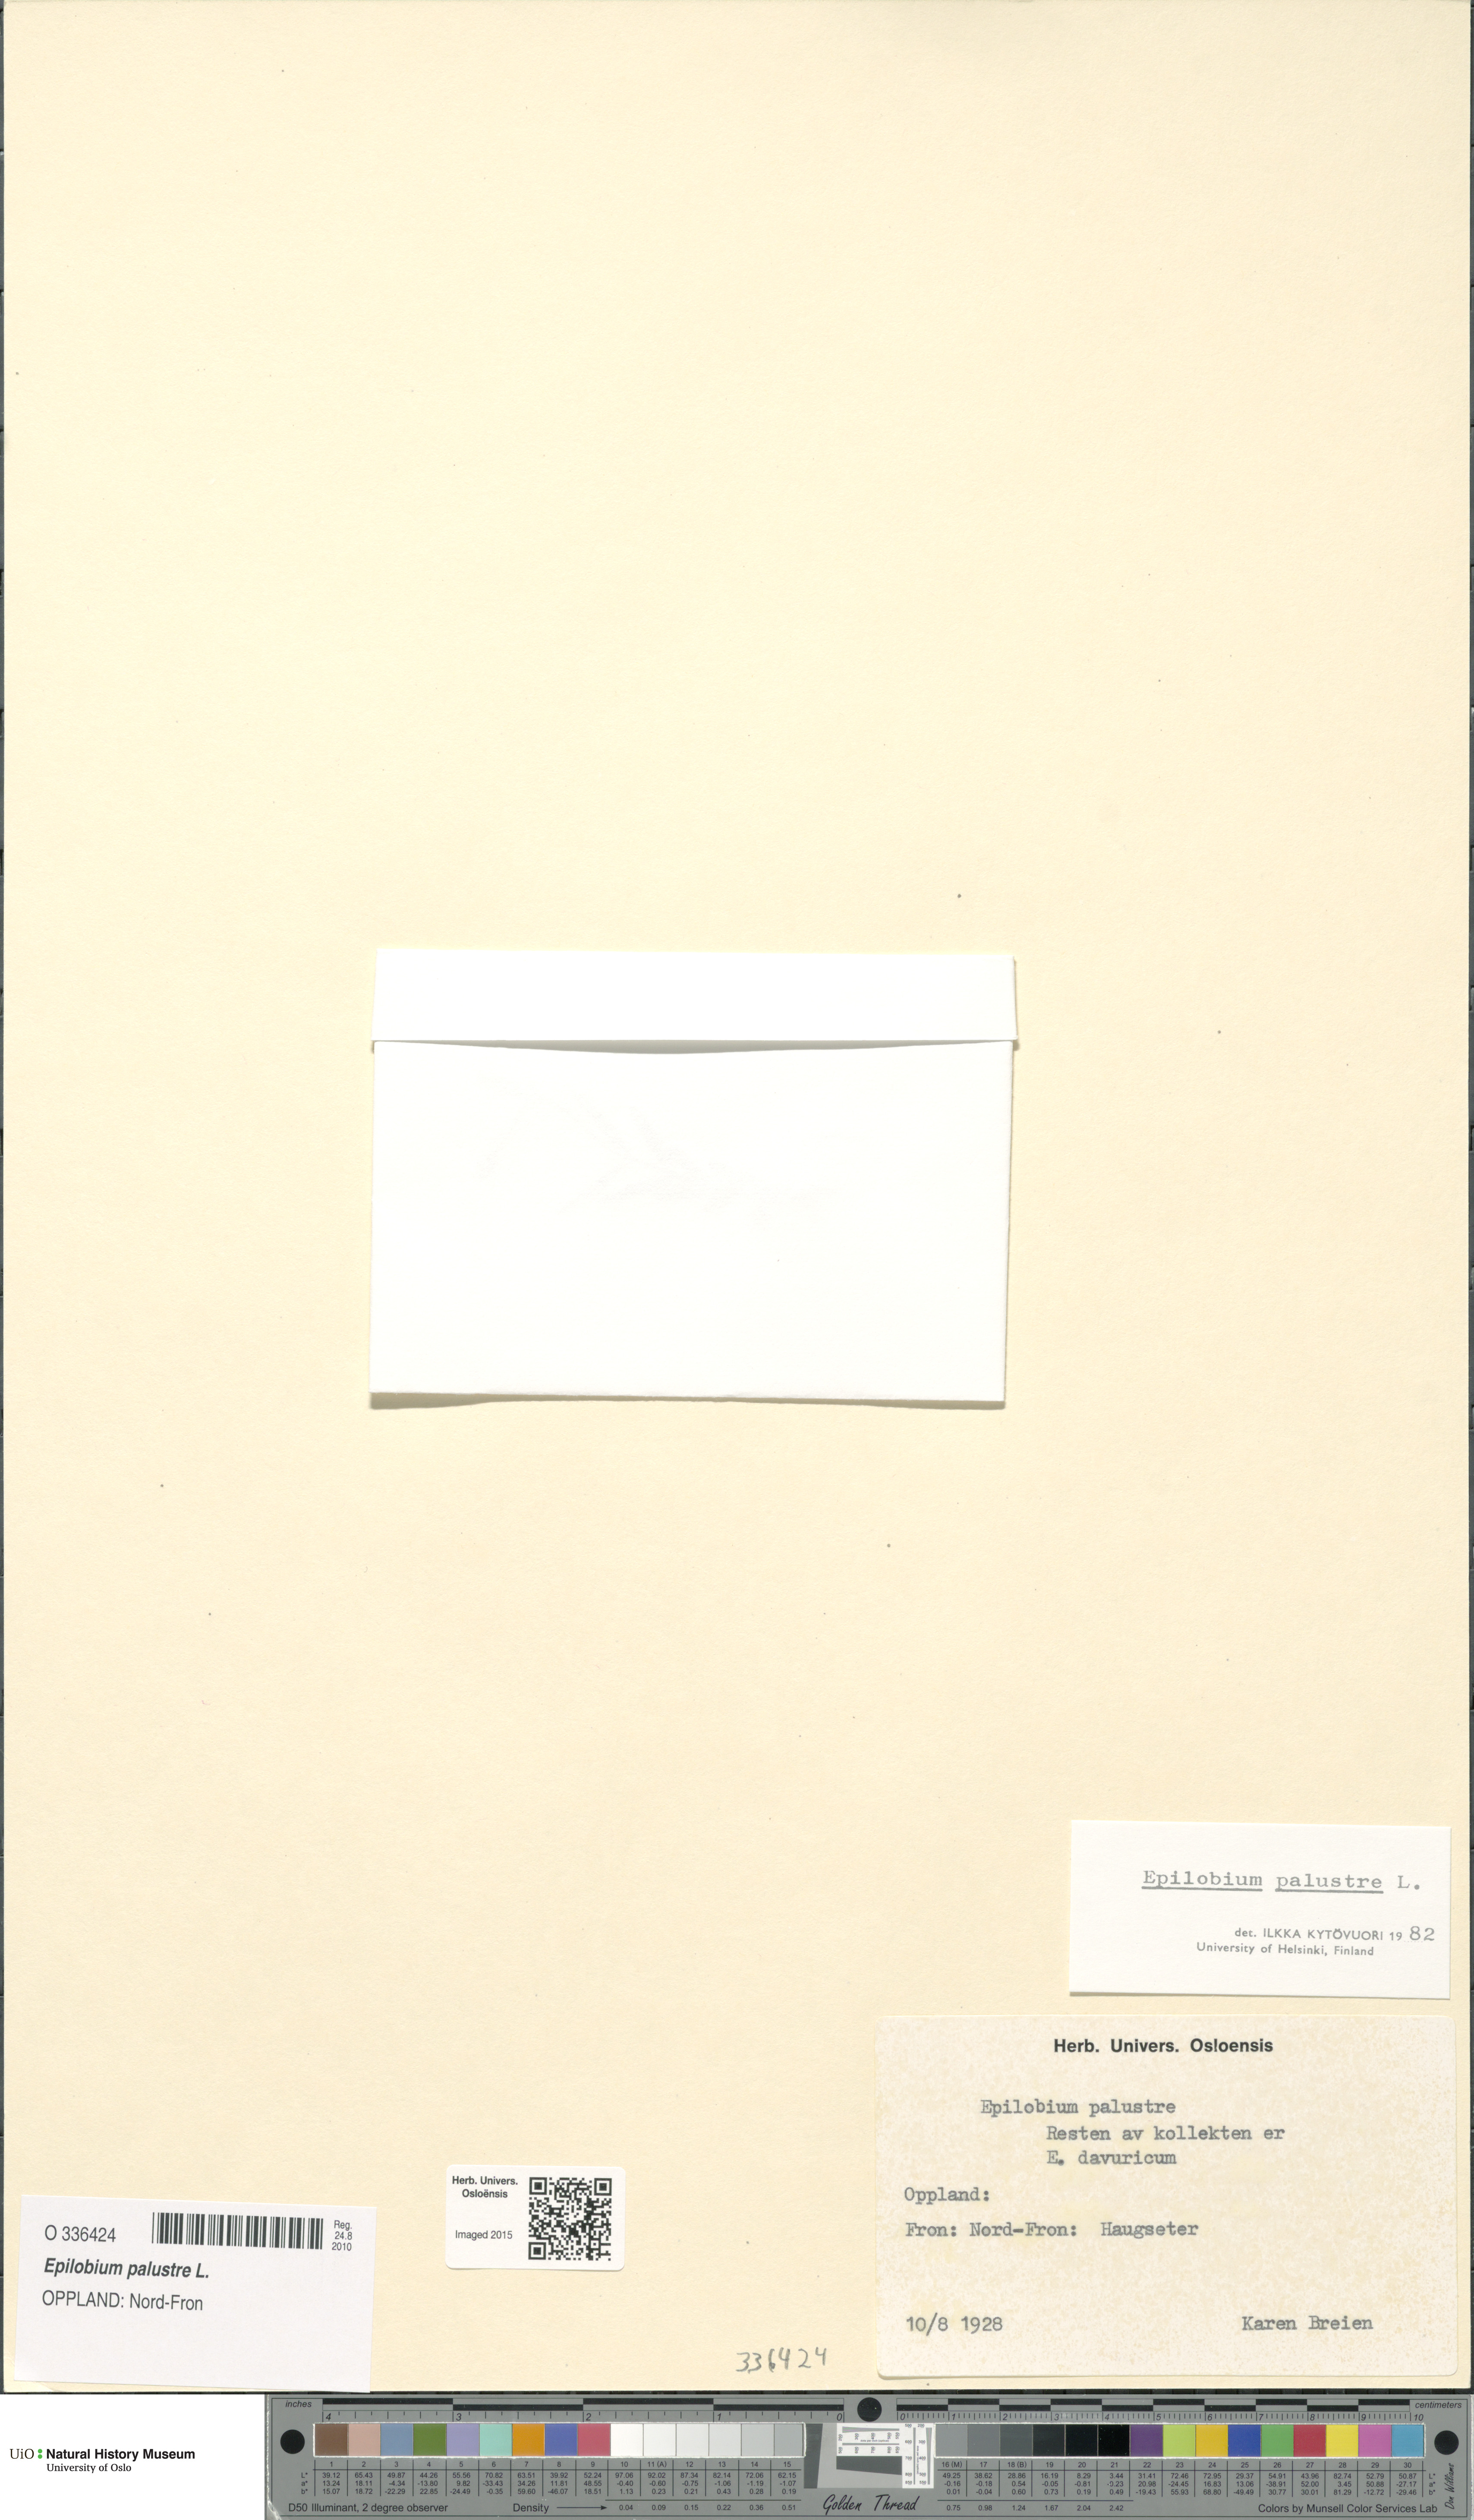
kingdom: Plantae
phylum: Tracheophyta
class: Magnoliopsida
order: Myrtales
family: Onagraceae
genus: Epilobium
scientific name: Epilobium palustre
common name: Marsh willowherb
